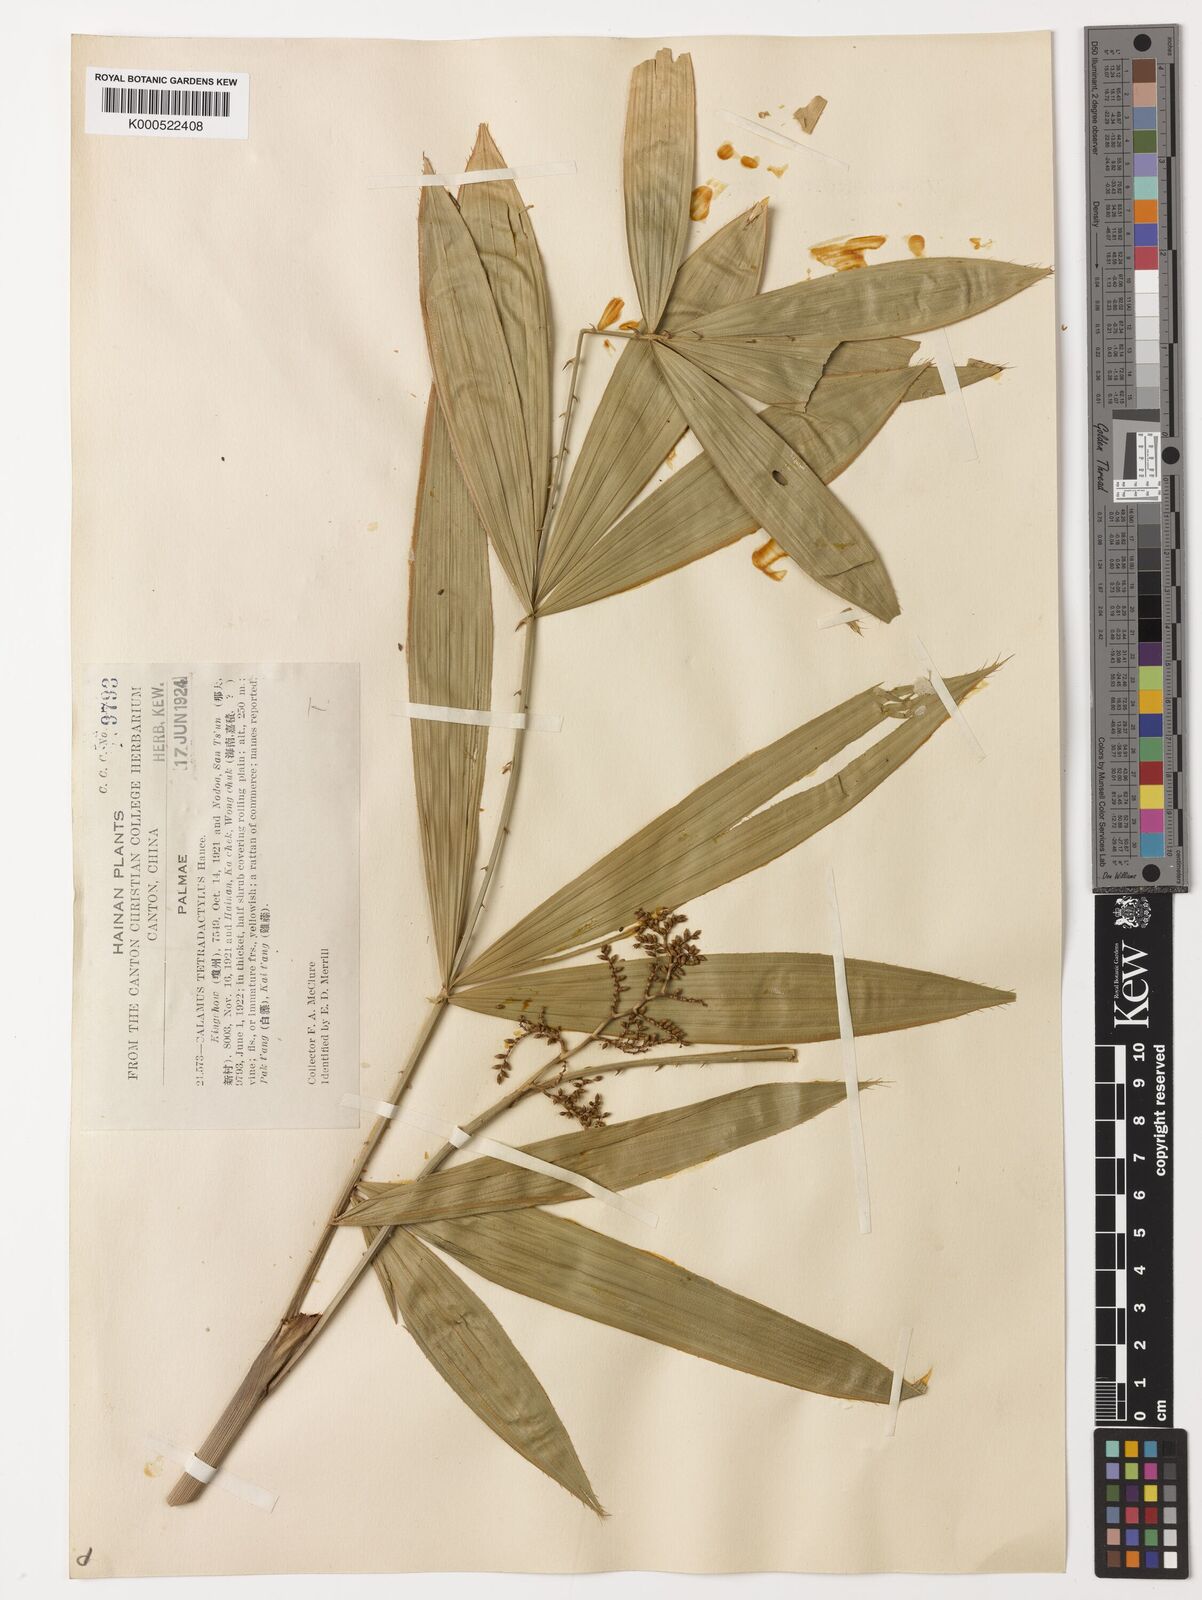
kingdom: Plantae
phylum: Tracheophyta
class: Liliopsida
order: Arecales
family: Arecaceae
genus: Calamus
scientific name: Calamus tetradactylus
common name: White rattan
